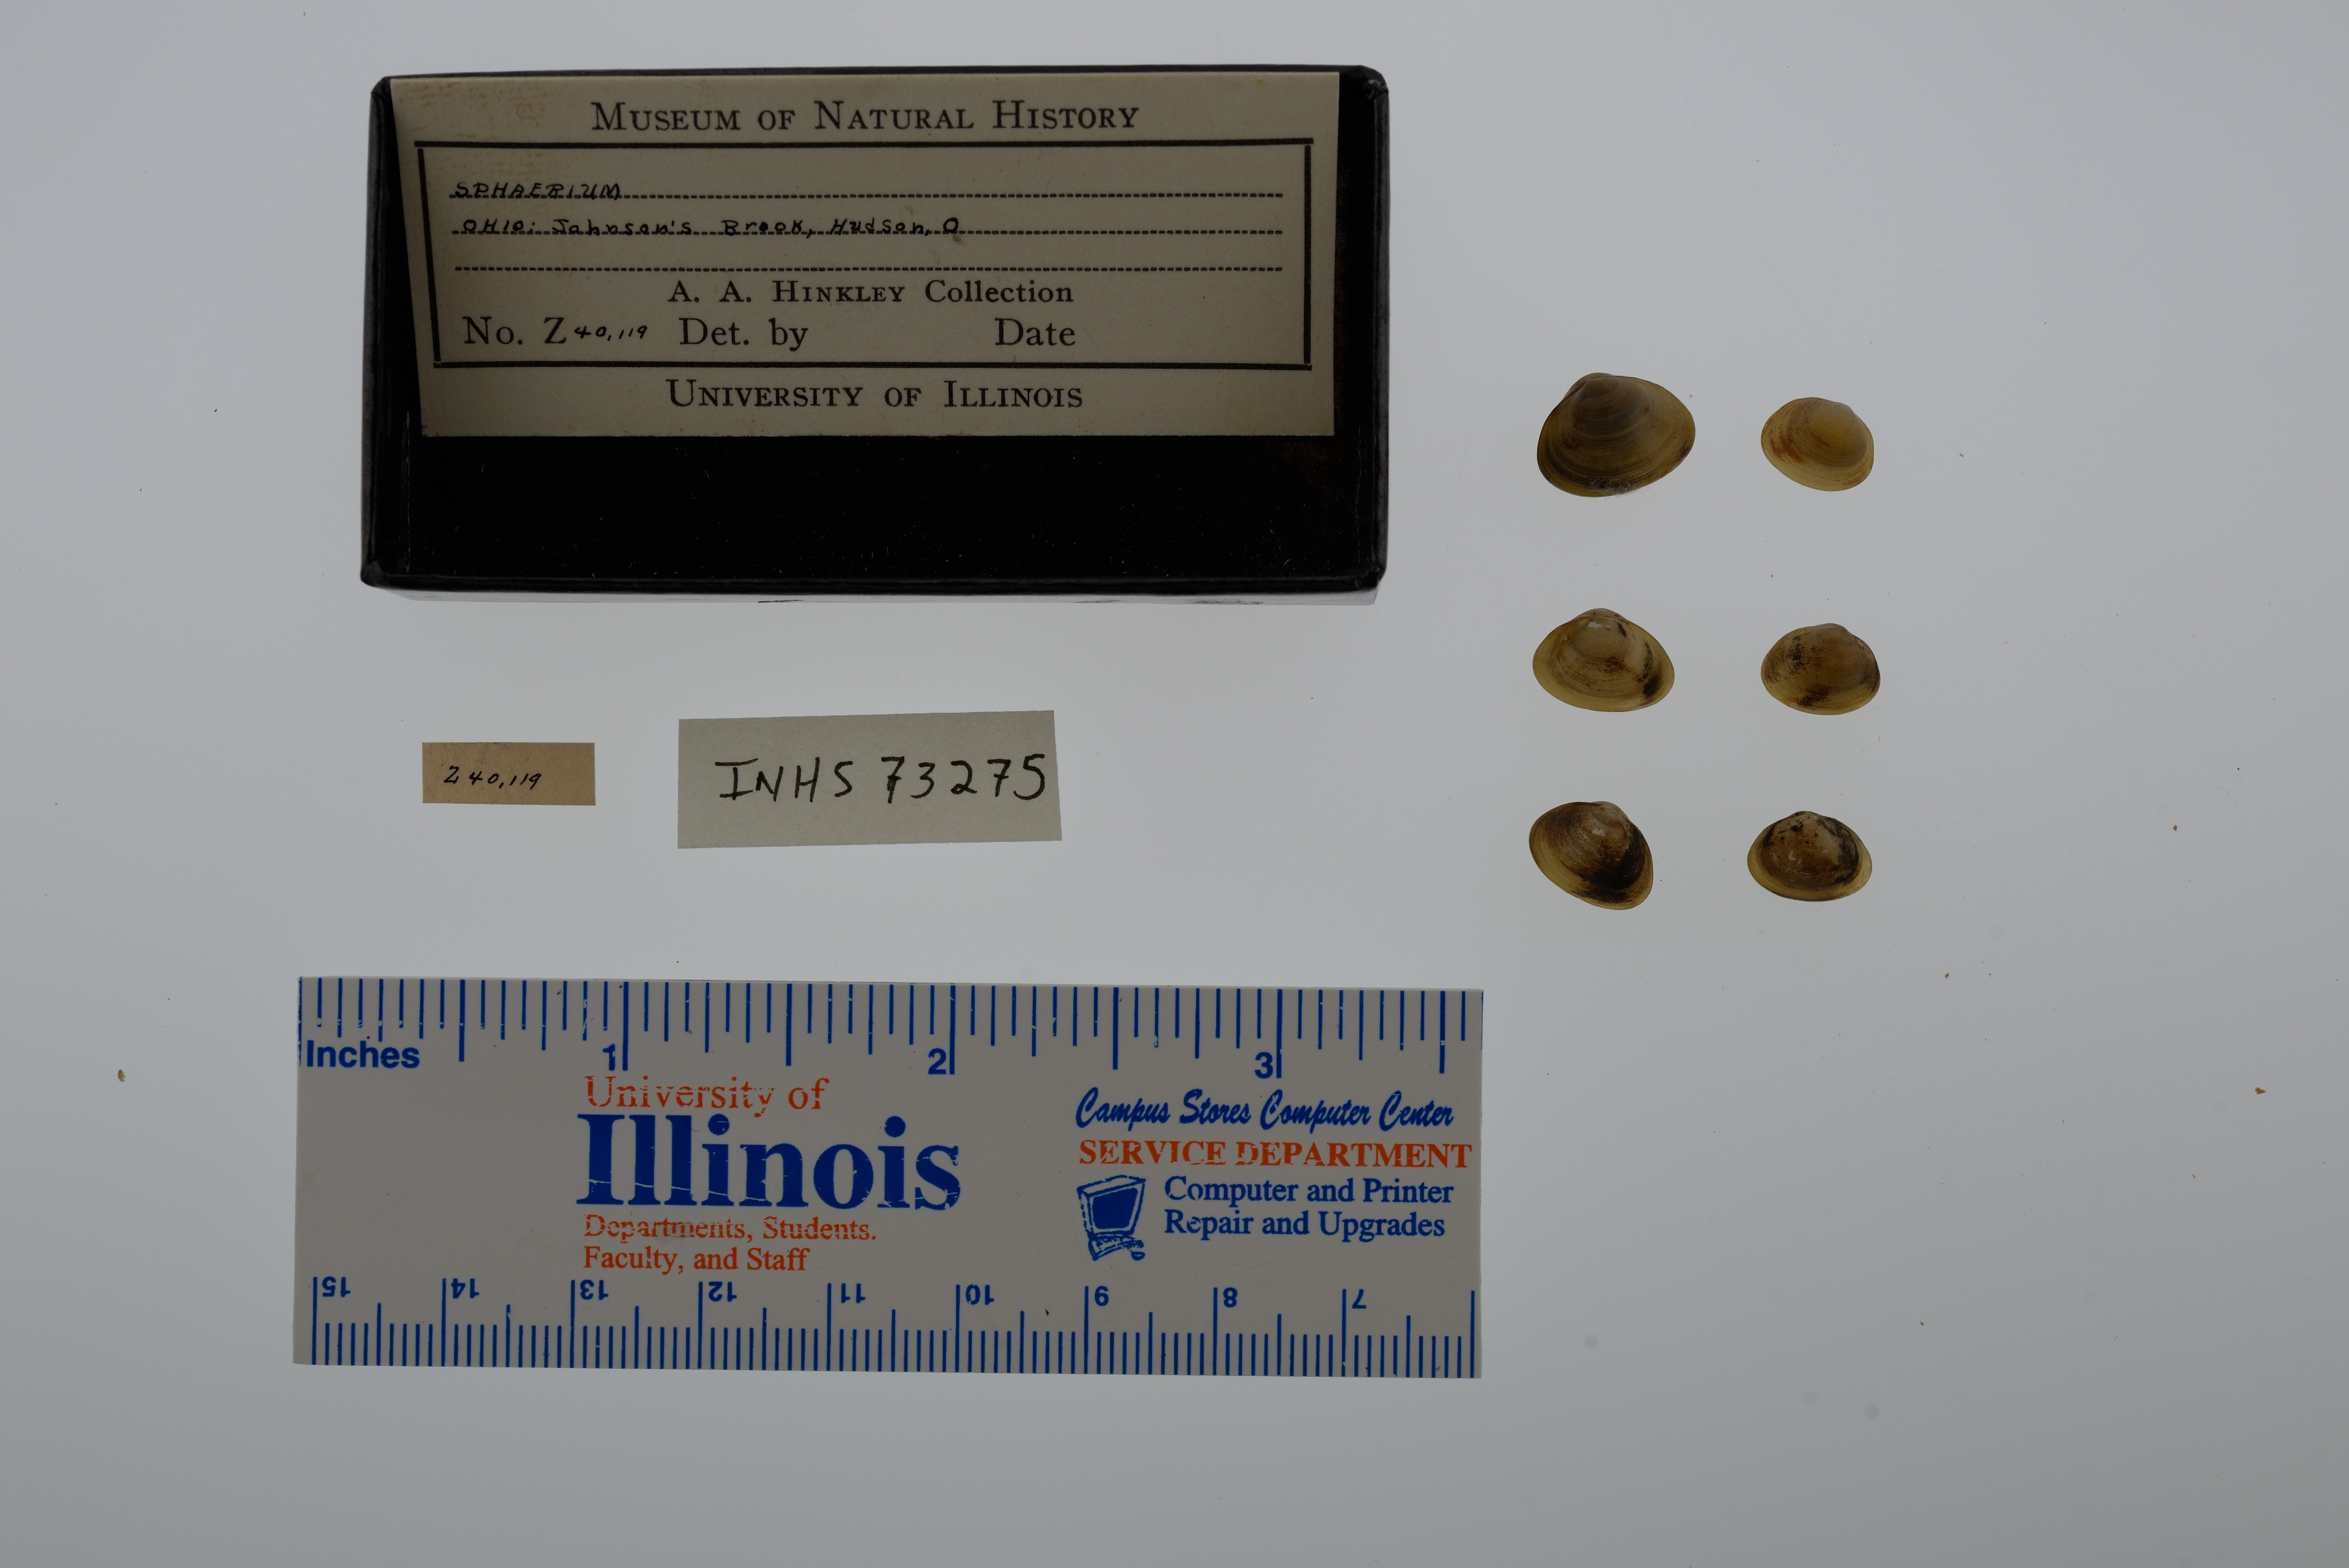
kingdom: Animalia
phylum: Mollusca
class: Bivalvia
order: Sphaeriida
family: Sphaeriidae
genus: Sphaerium
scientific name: Sphaerium
